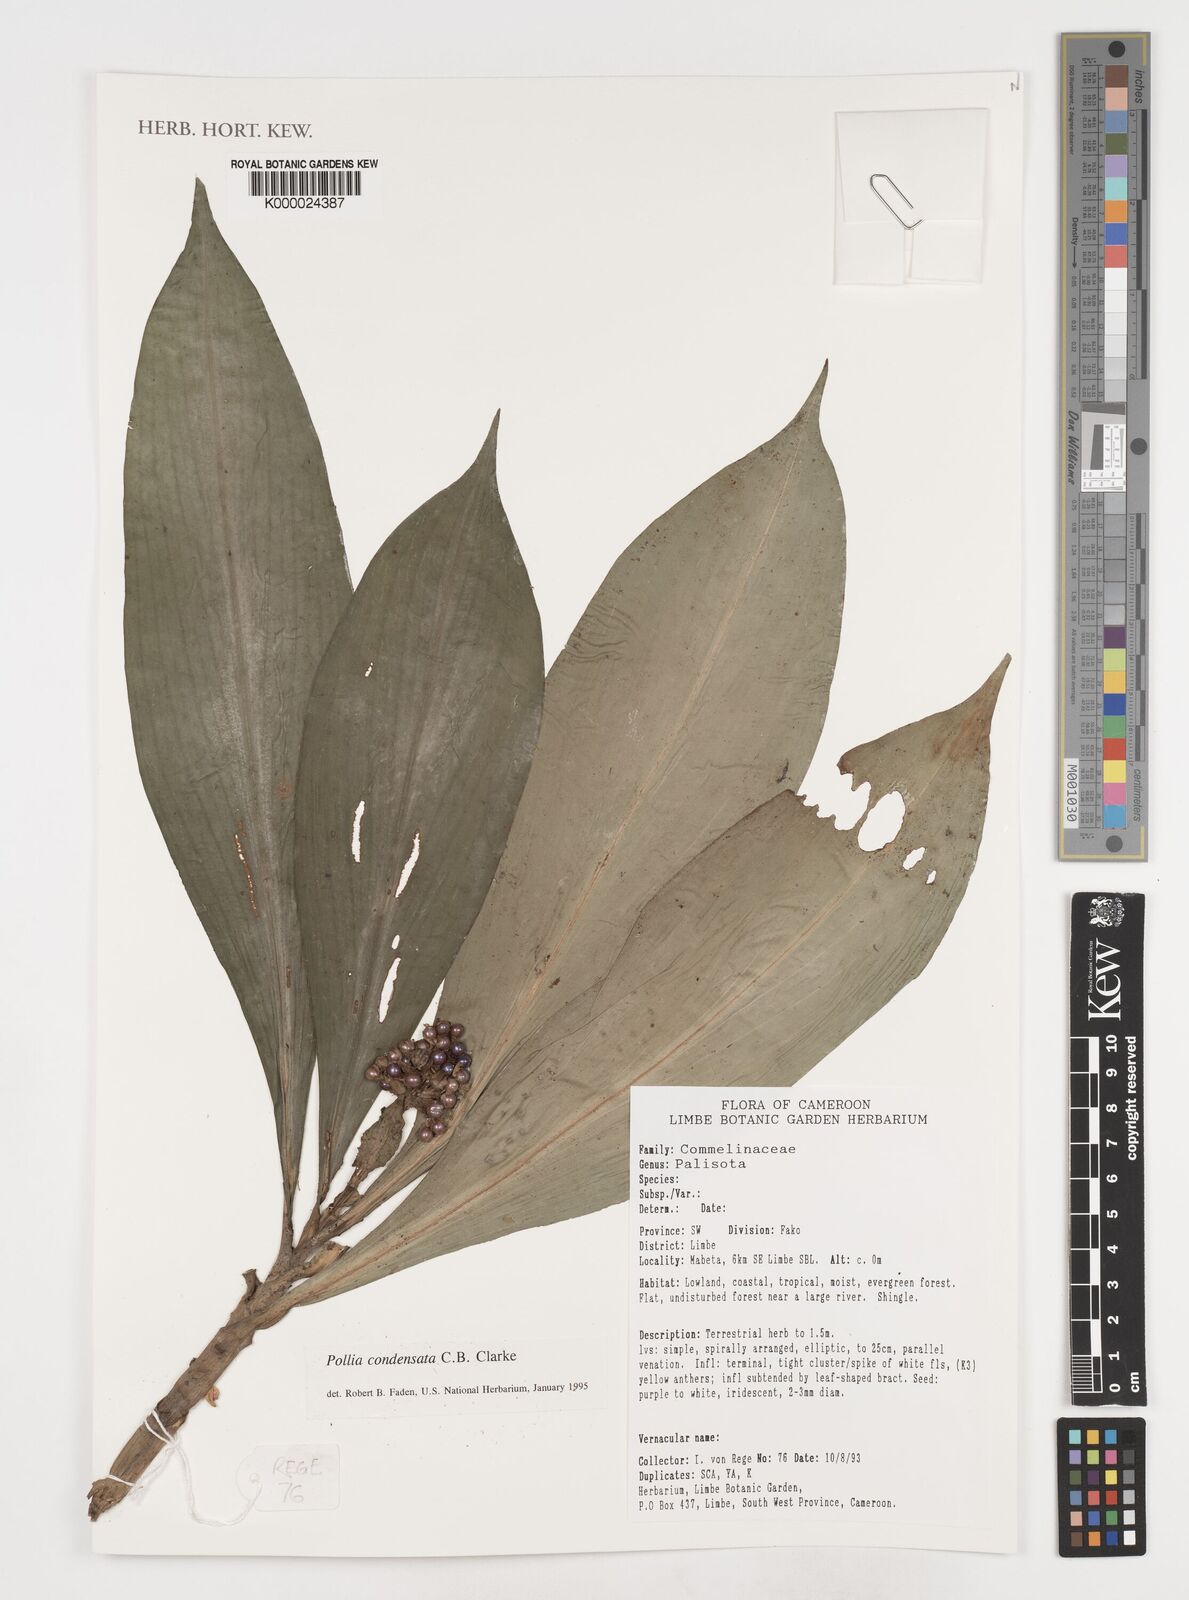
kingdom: Plantae
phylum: Tracheophyta
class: Liliopsida
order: Commelinales
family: Commelinaceae
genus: Pollia
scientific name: Pollia condensata
